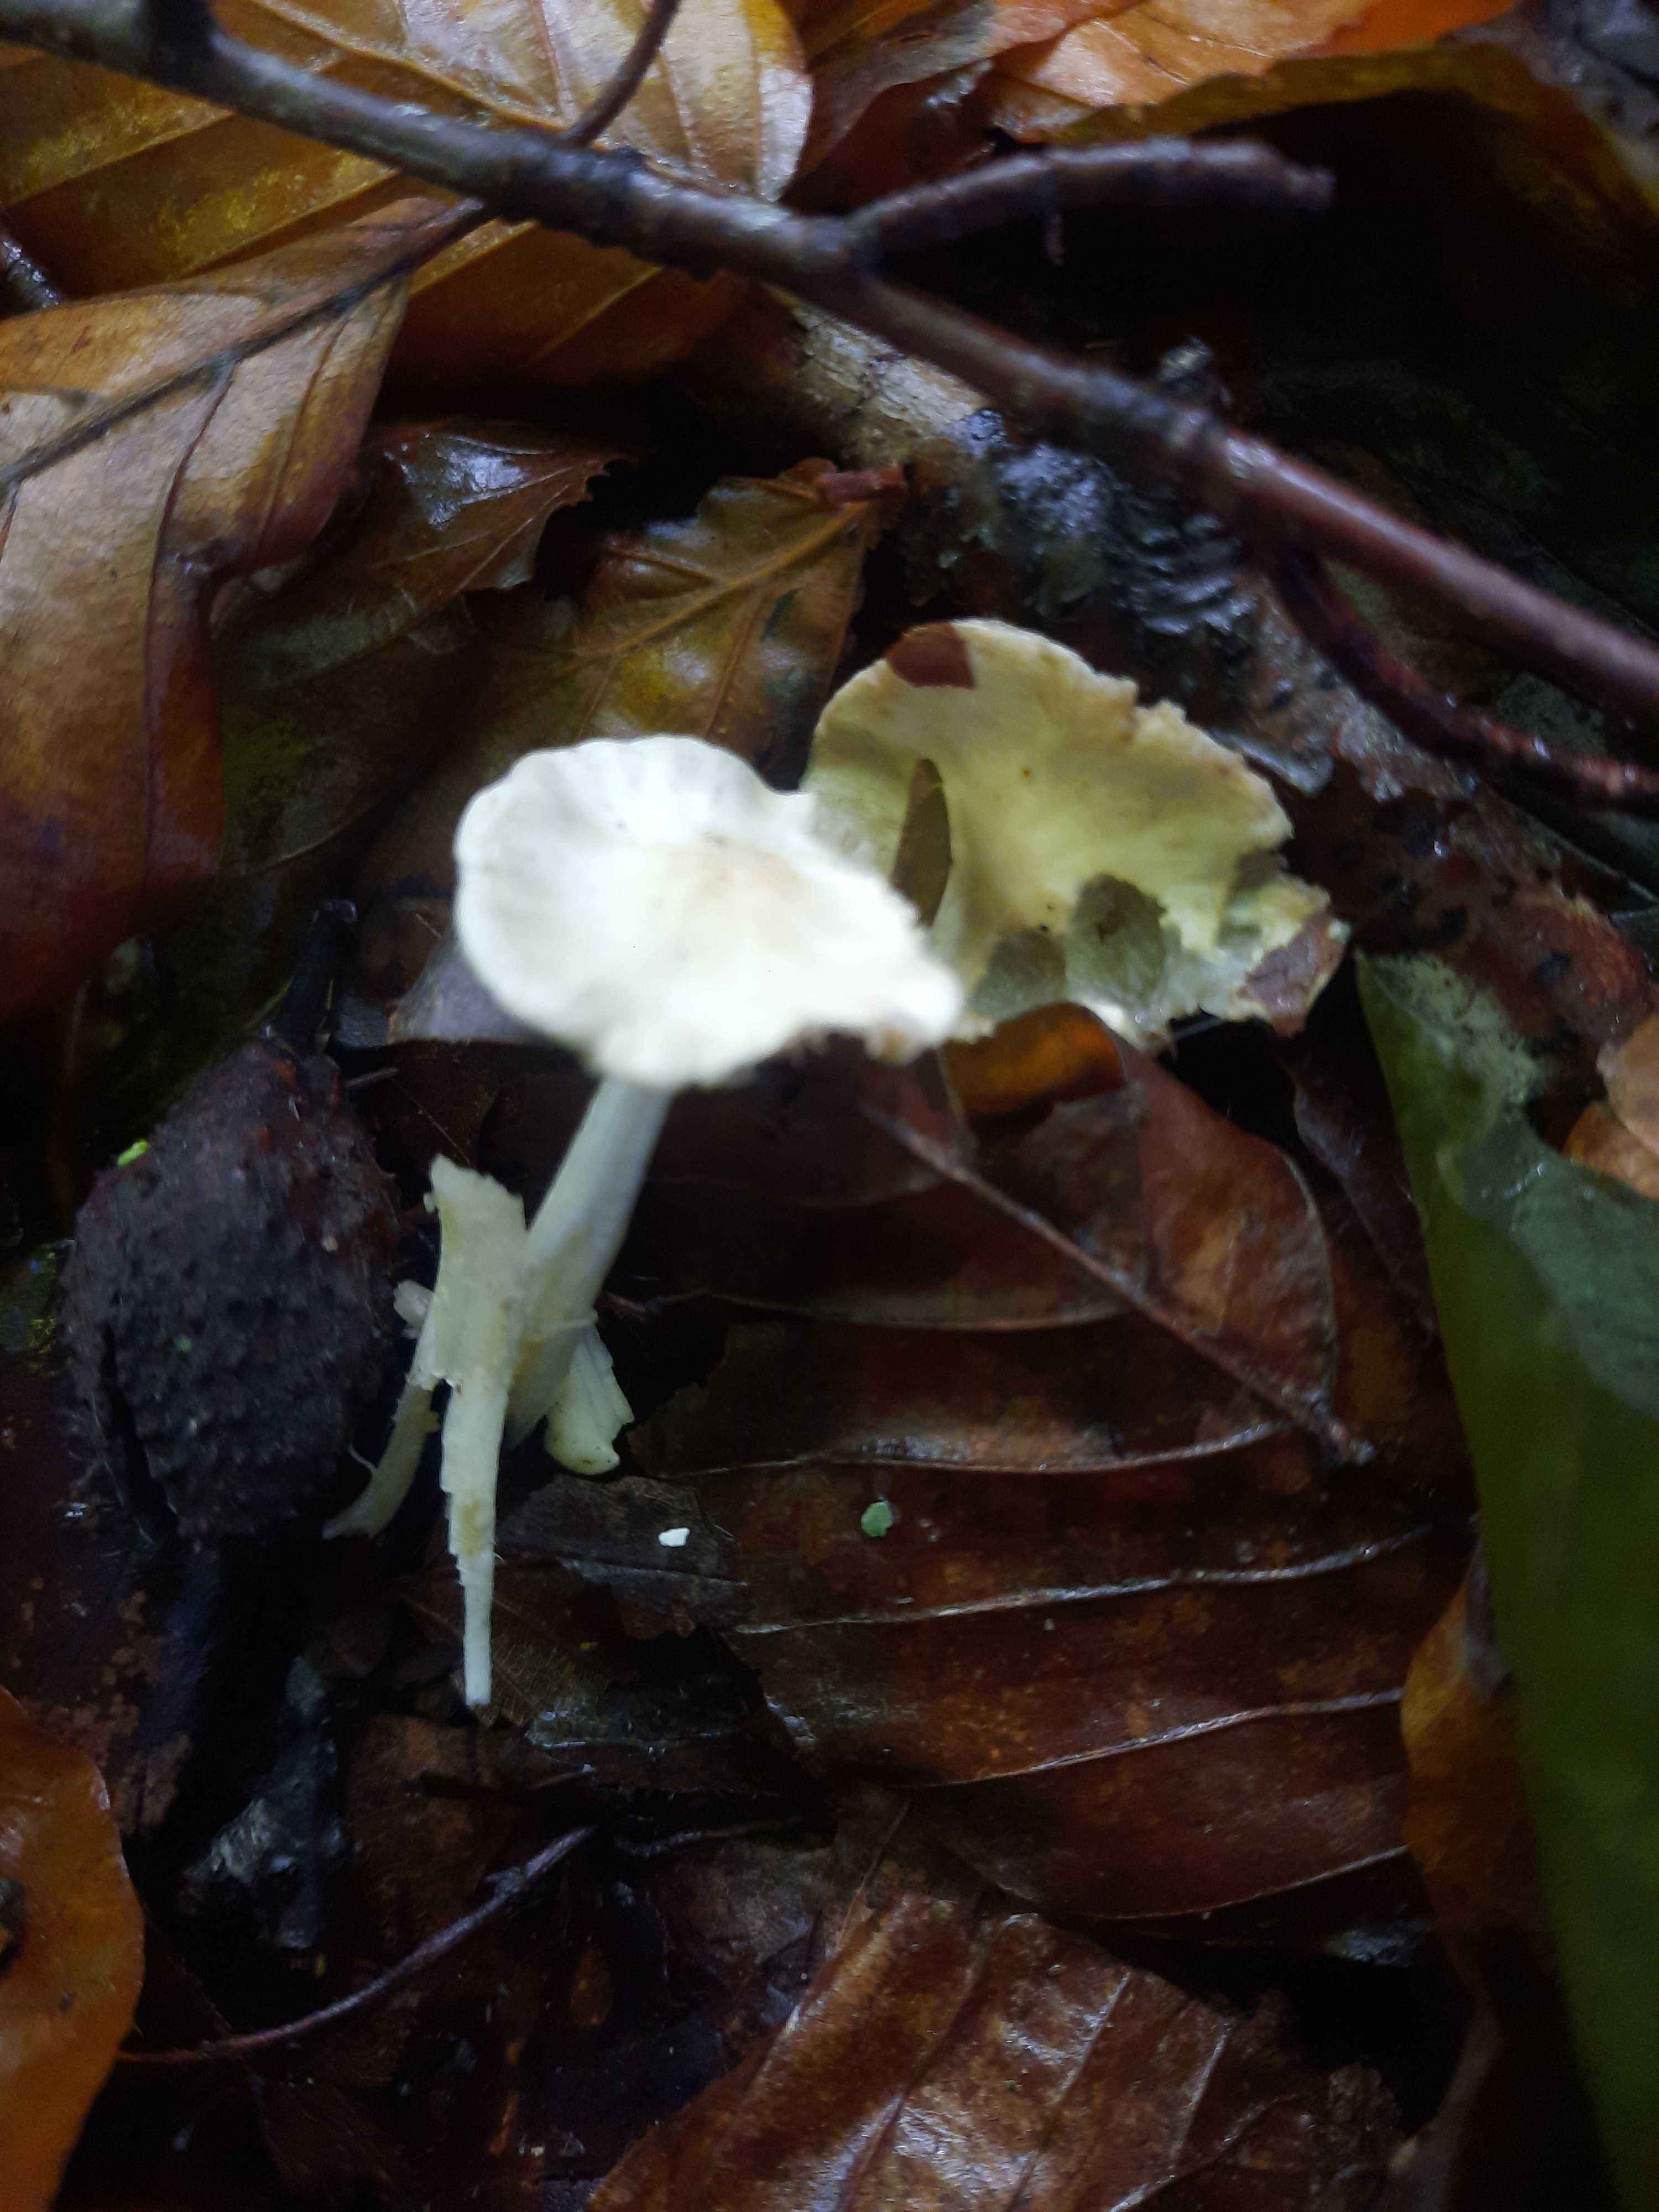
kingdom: Fungi
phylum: Basidiomycota
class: Agaricomycetes
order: Agaricales
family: Inocybaceae
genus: Inocybe
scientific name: Inocybe
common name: almindelig trævlhat
